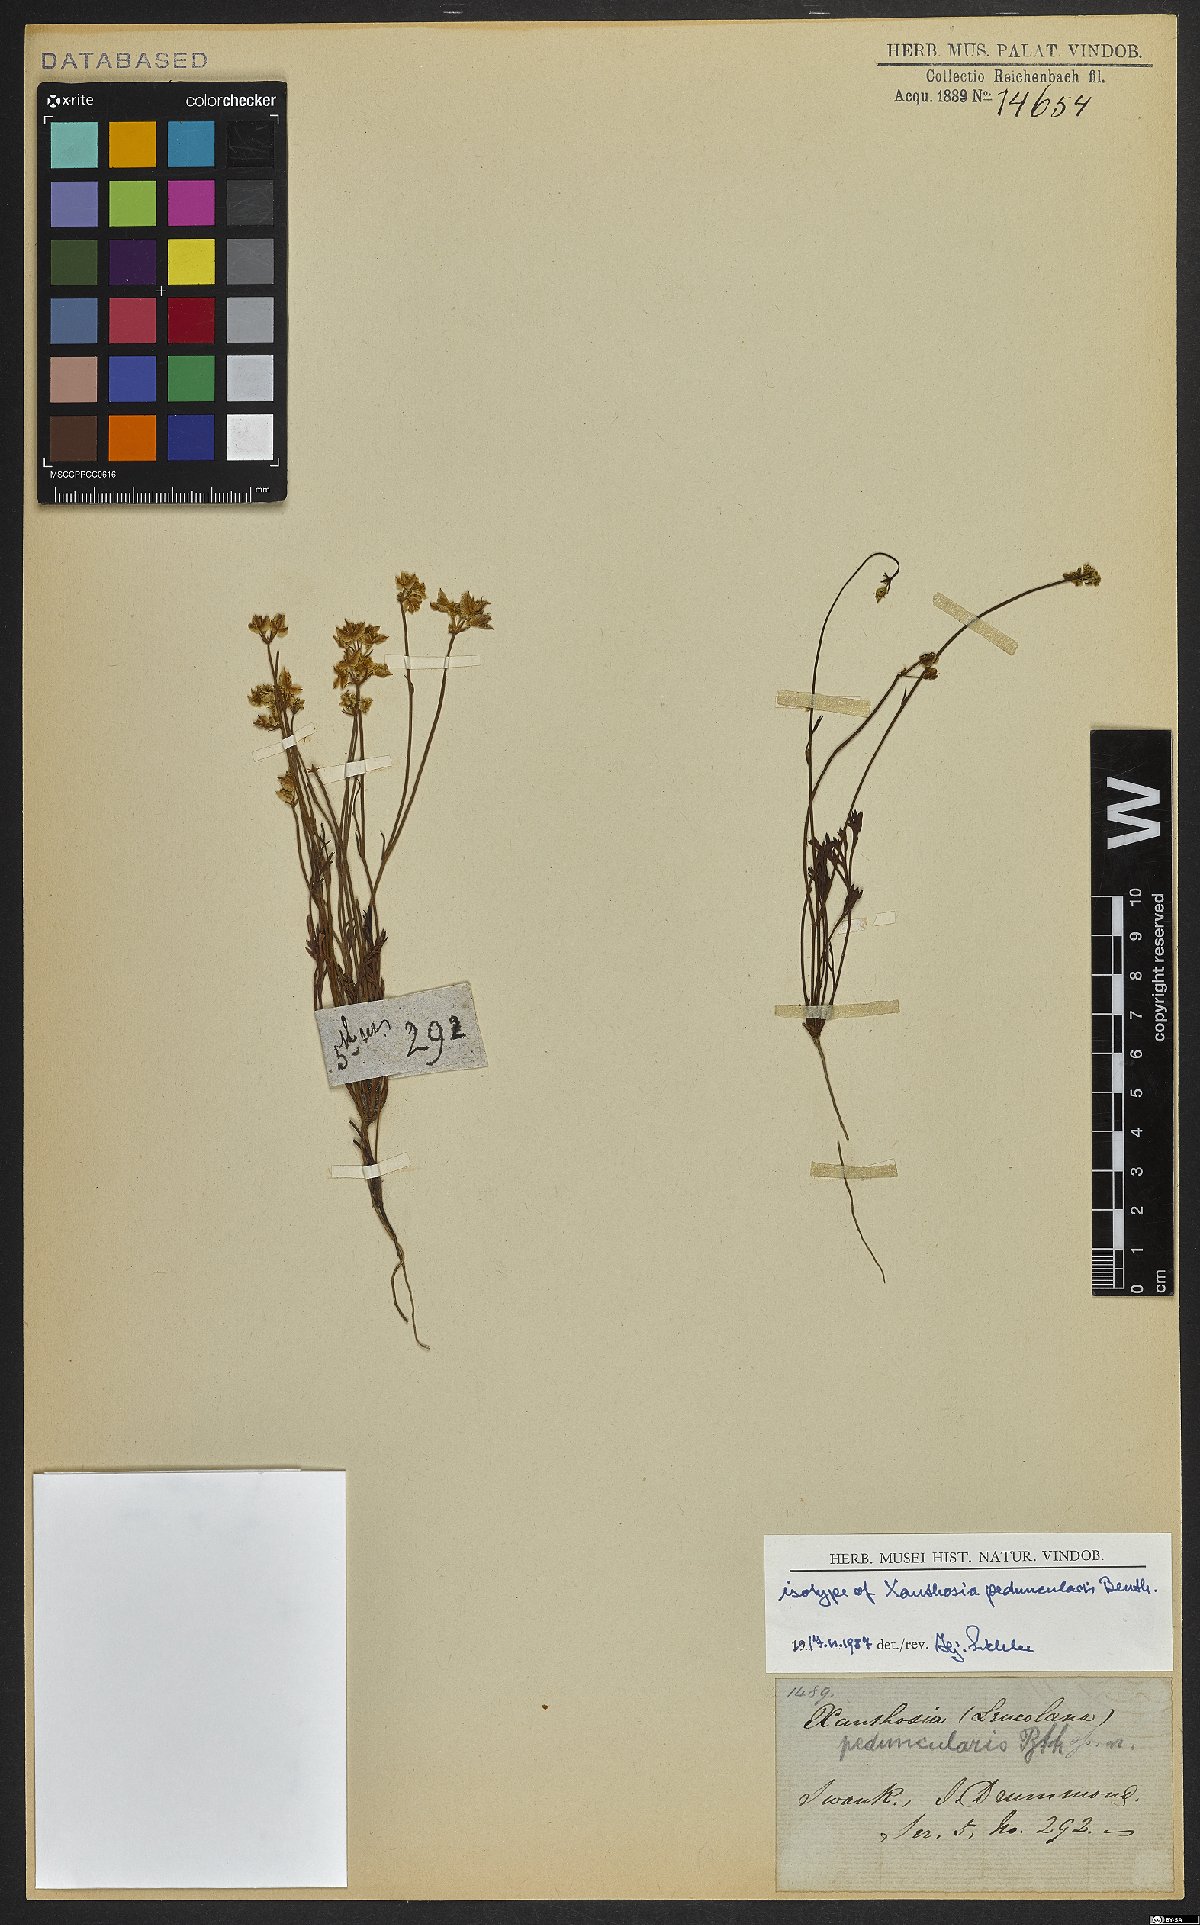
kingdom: Plantae
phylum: Tracheophyta
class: Magnoliopsida
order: Apiales
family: Apiaceae
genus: Xanthosia
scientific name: Xanthosia peduncularis
